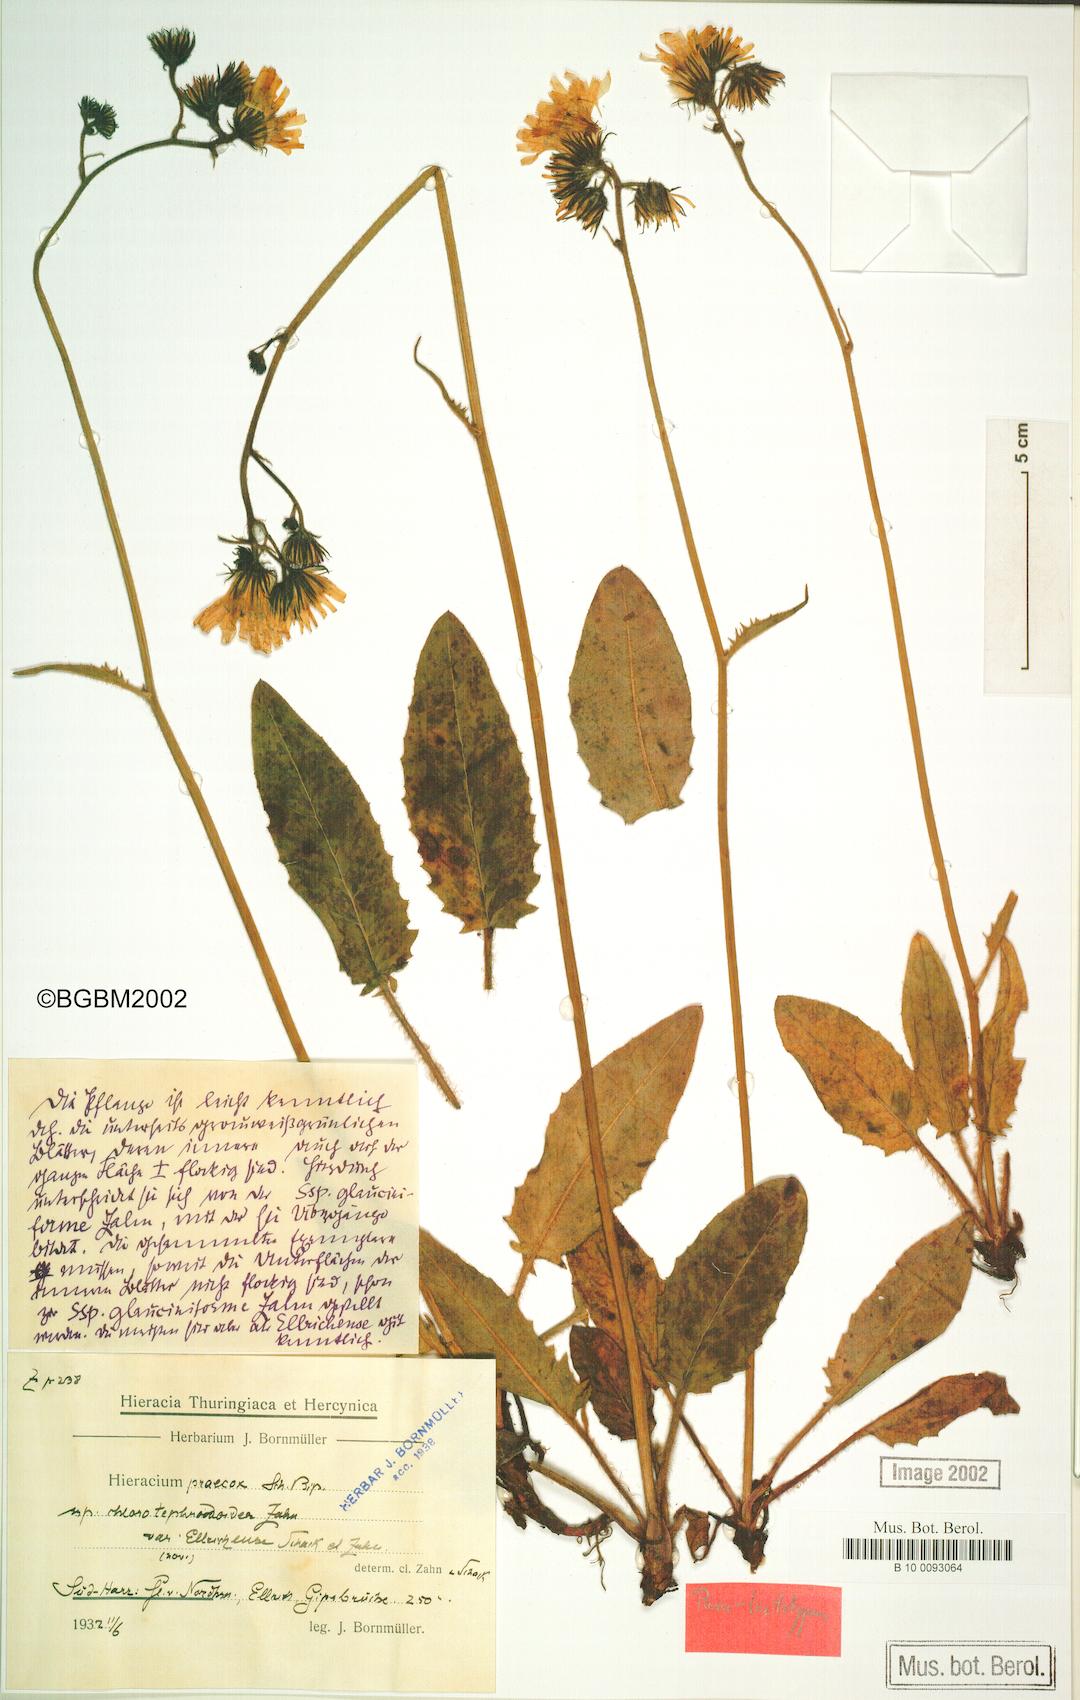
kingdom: Plantae
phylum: Tracheophyta
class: Magnoliopsida
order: Asterales
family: Asteraceae
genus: Hieracium
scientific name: Hieracium praecox
